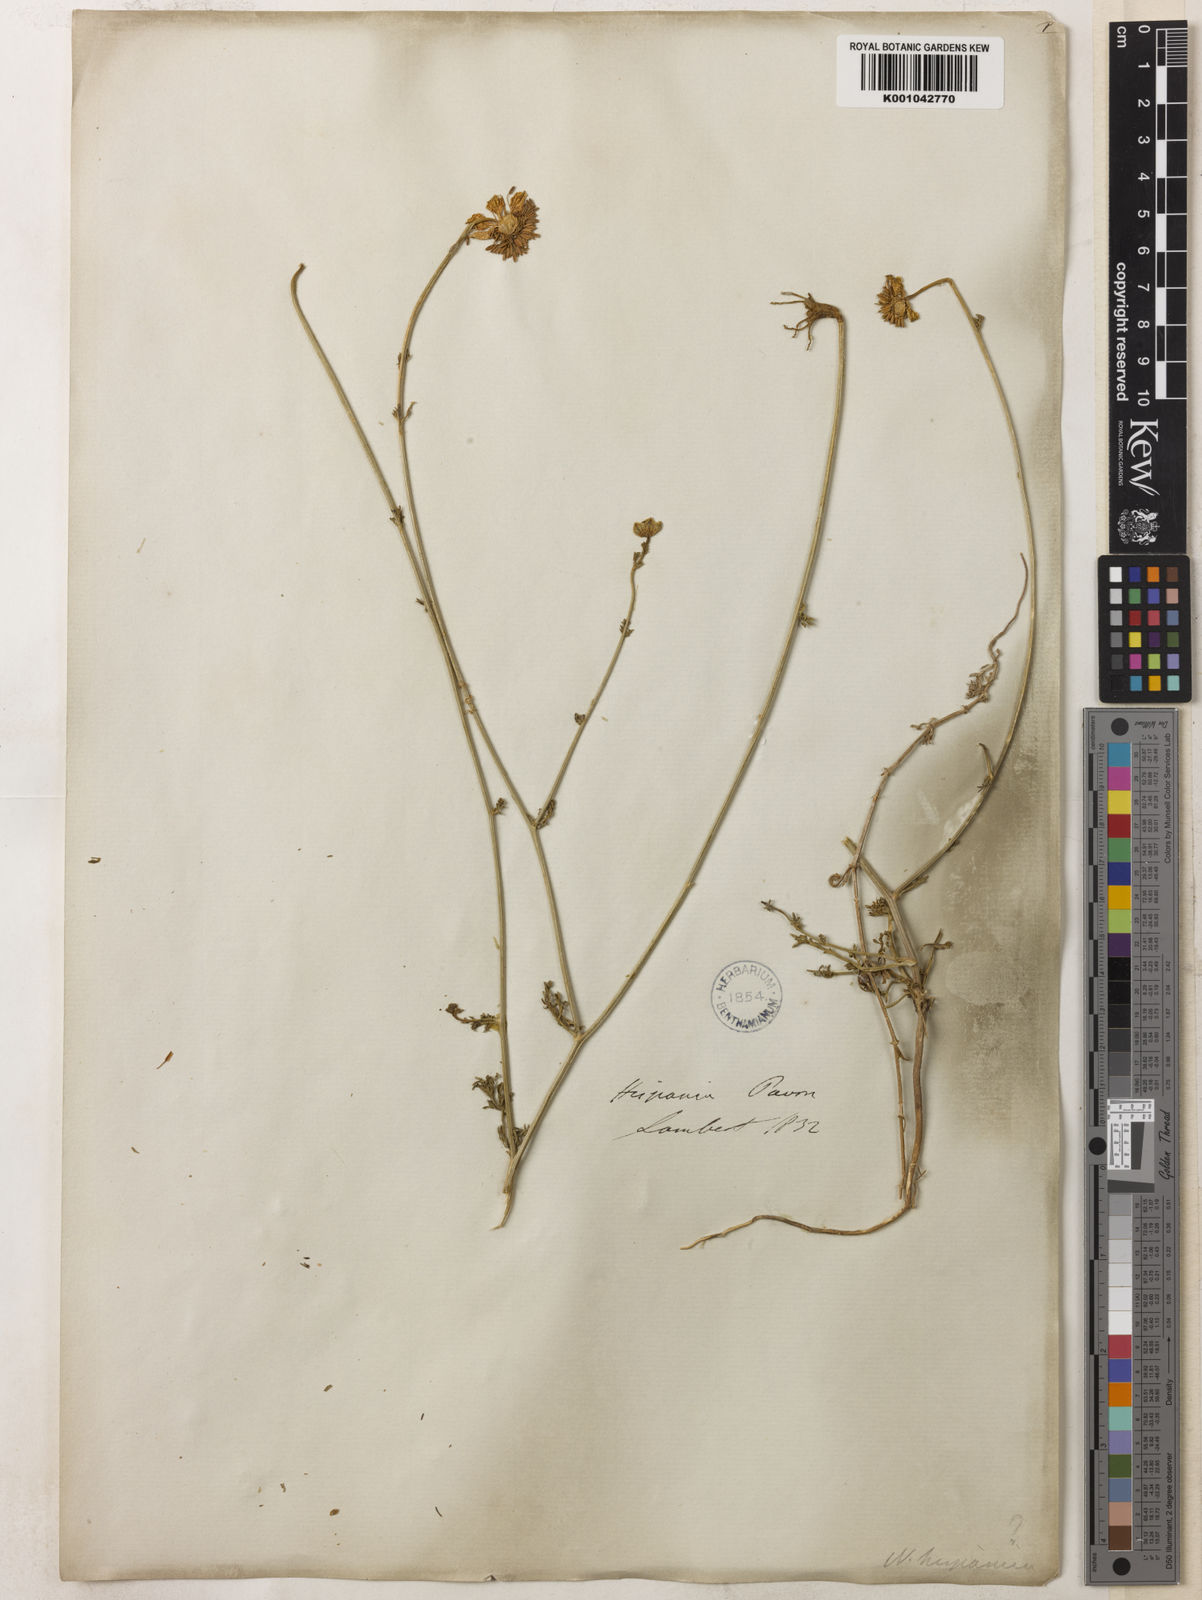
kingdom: Plantae
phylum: Tracheophyta
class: Magnoliopsida
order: Ranunculales
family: Ranunculaceae
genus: Nigella
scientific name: Nigella hispanica
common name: Fennel-flower
